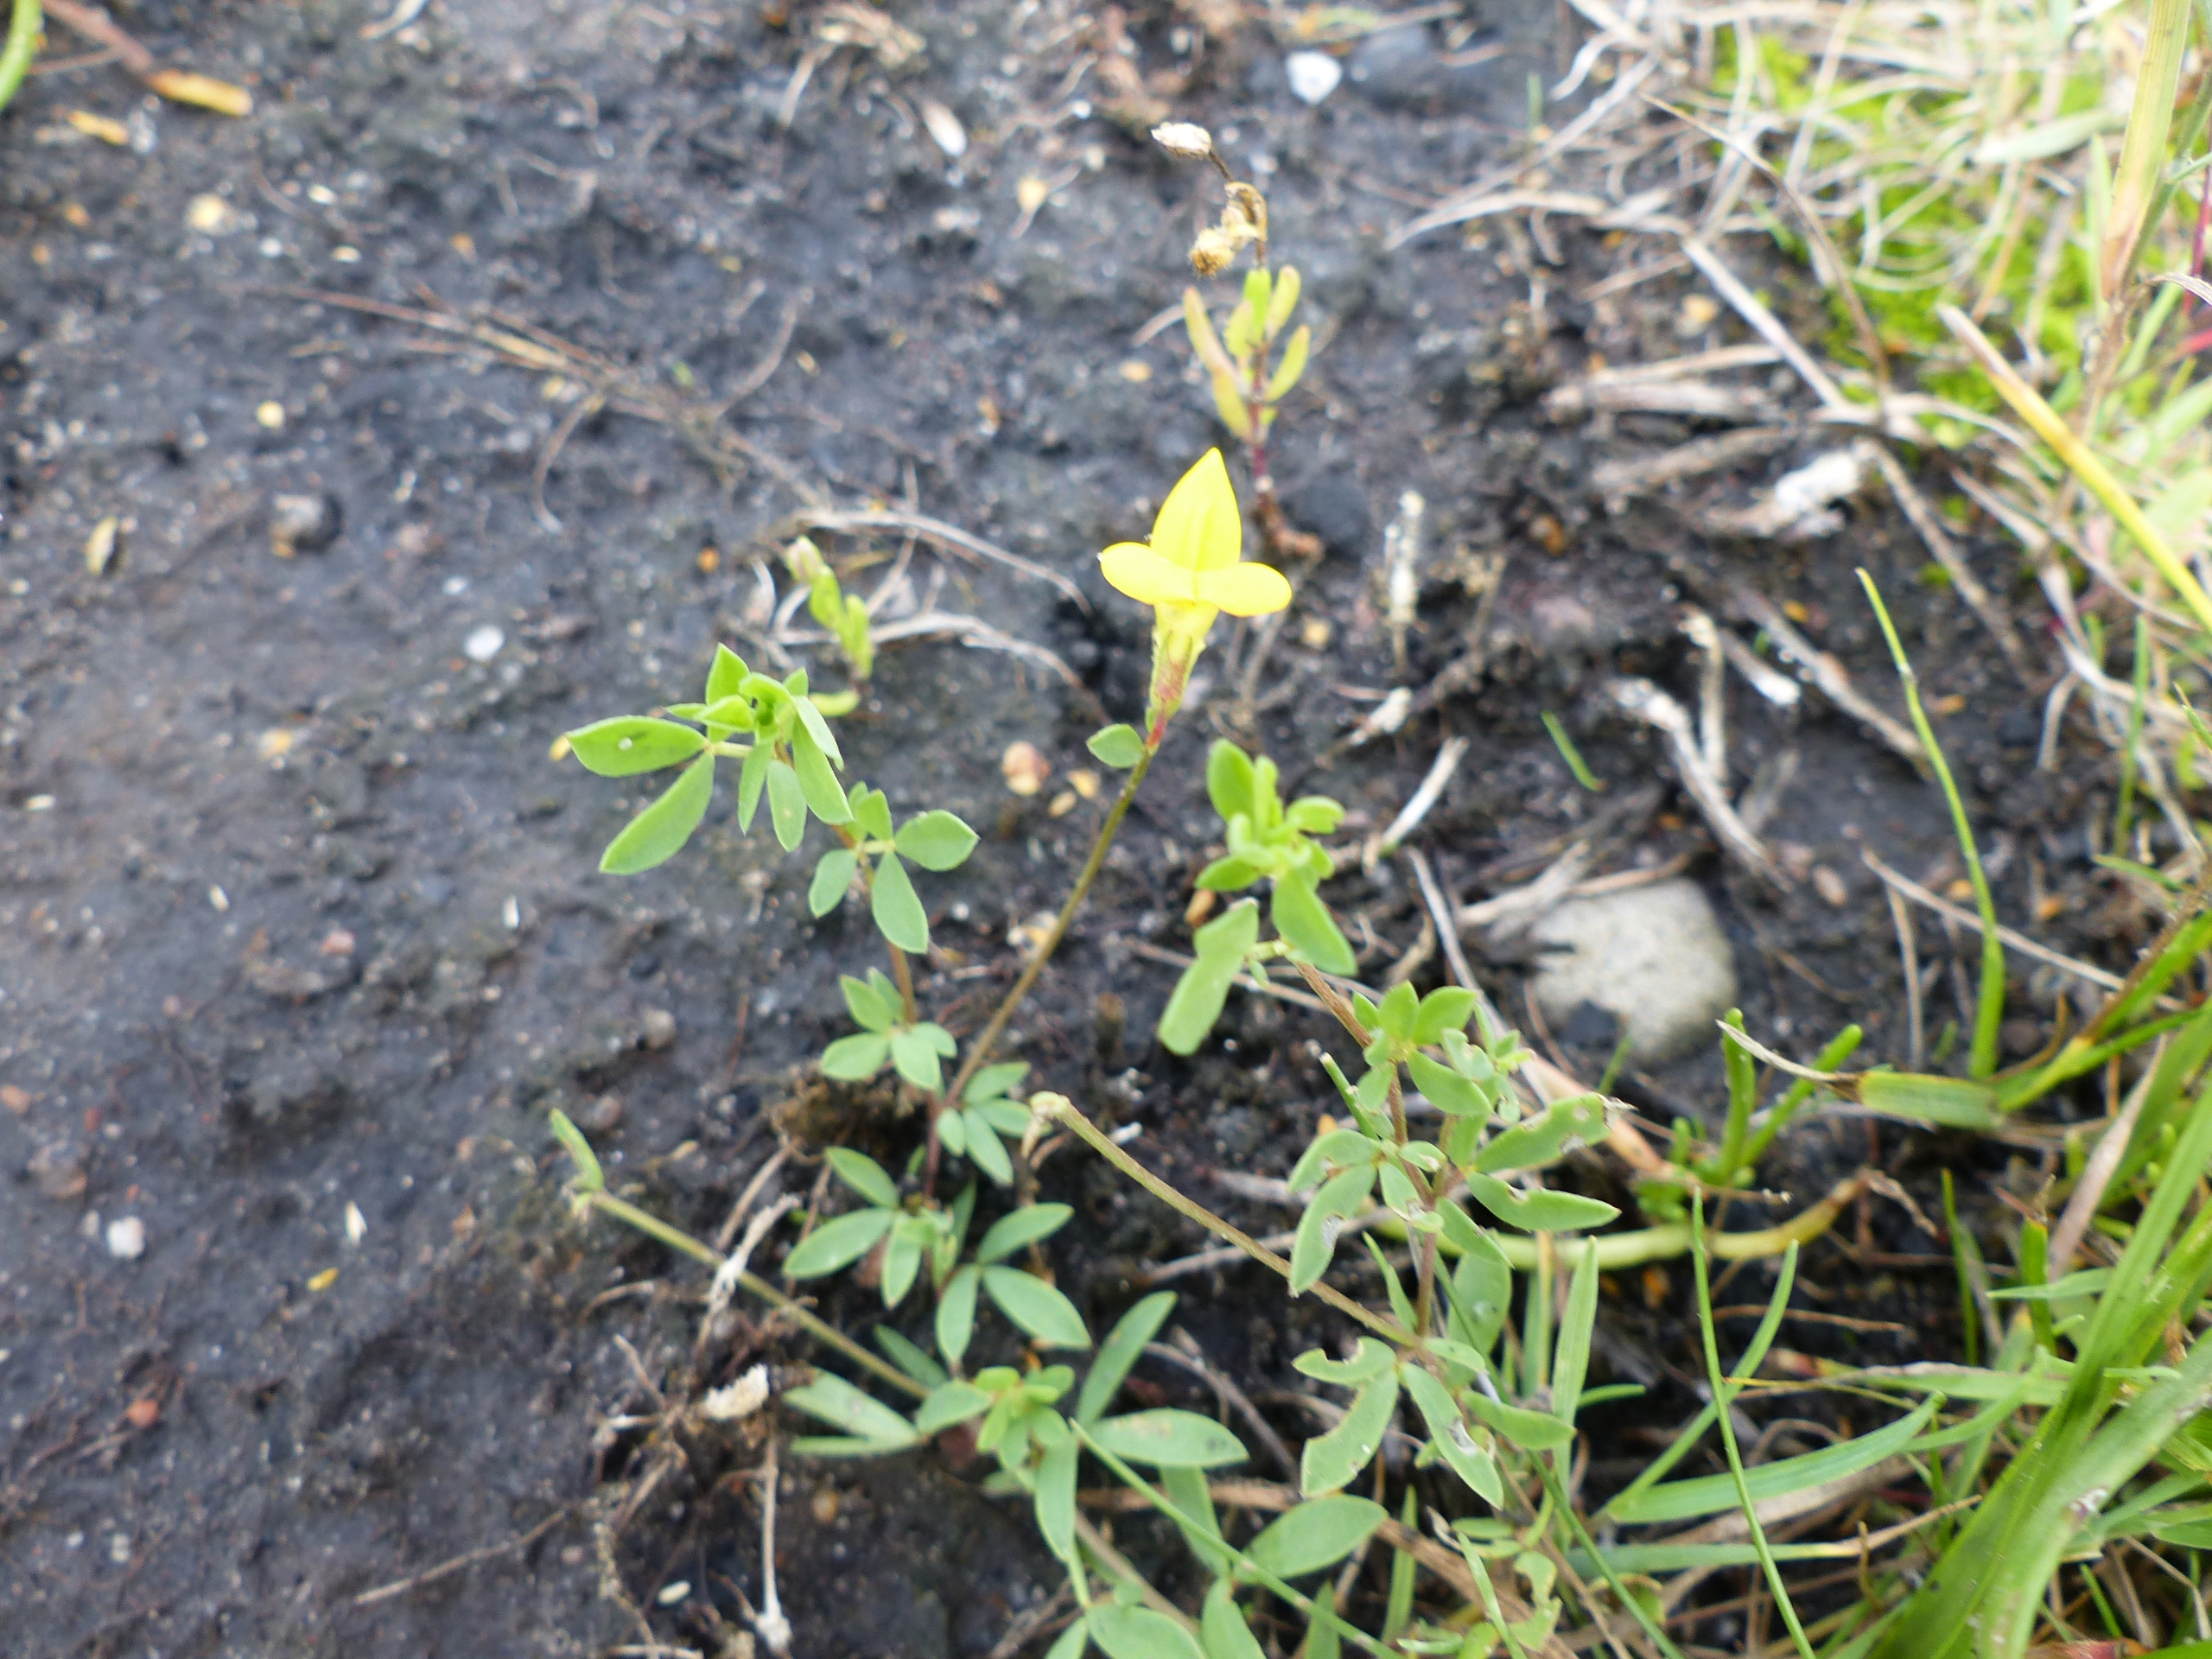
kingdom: Plantae
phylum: Tracheophyta
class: Magnoliopsida
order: Fabales
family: Fabaceae
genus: Lotus
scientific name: Lotus tenuis
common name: Smalbladet kællingetand
